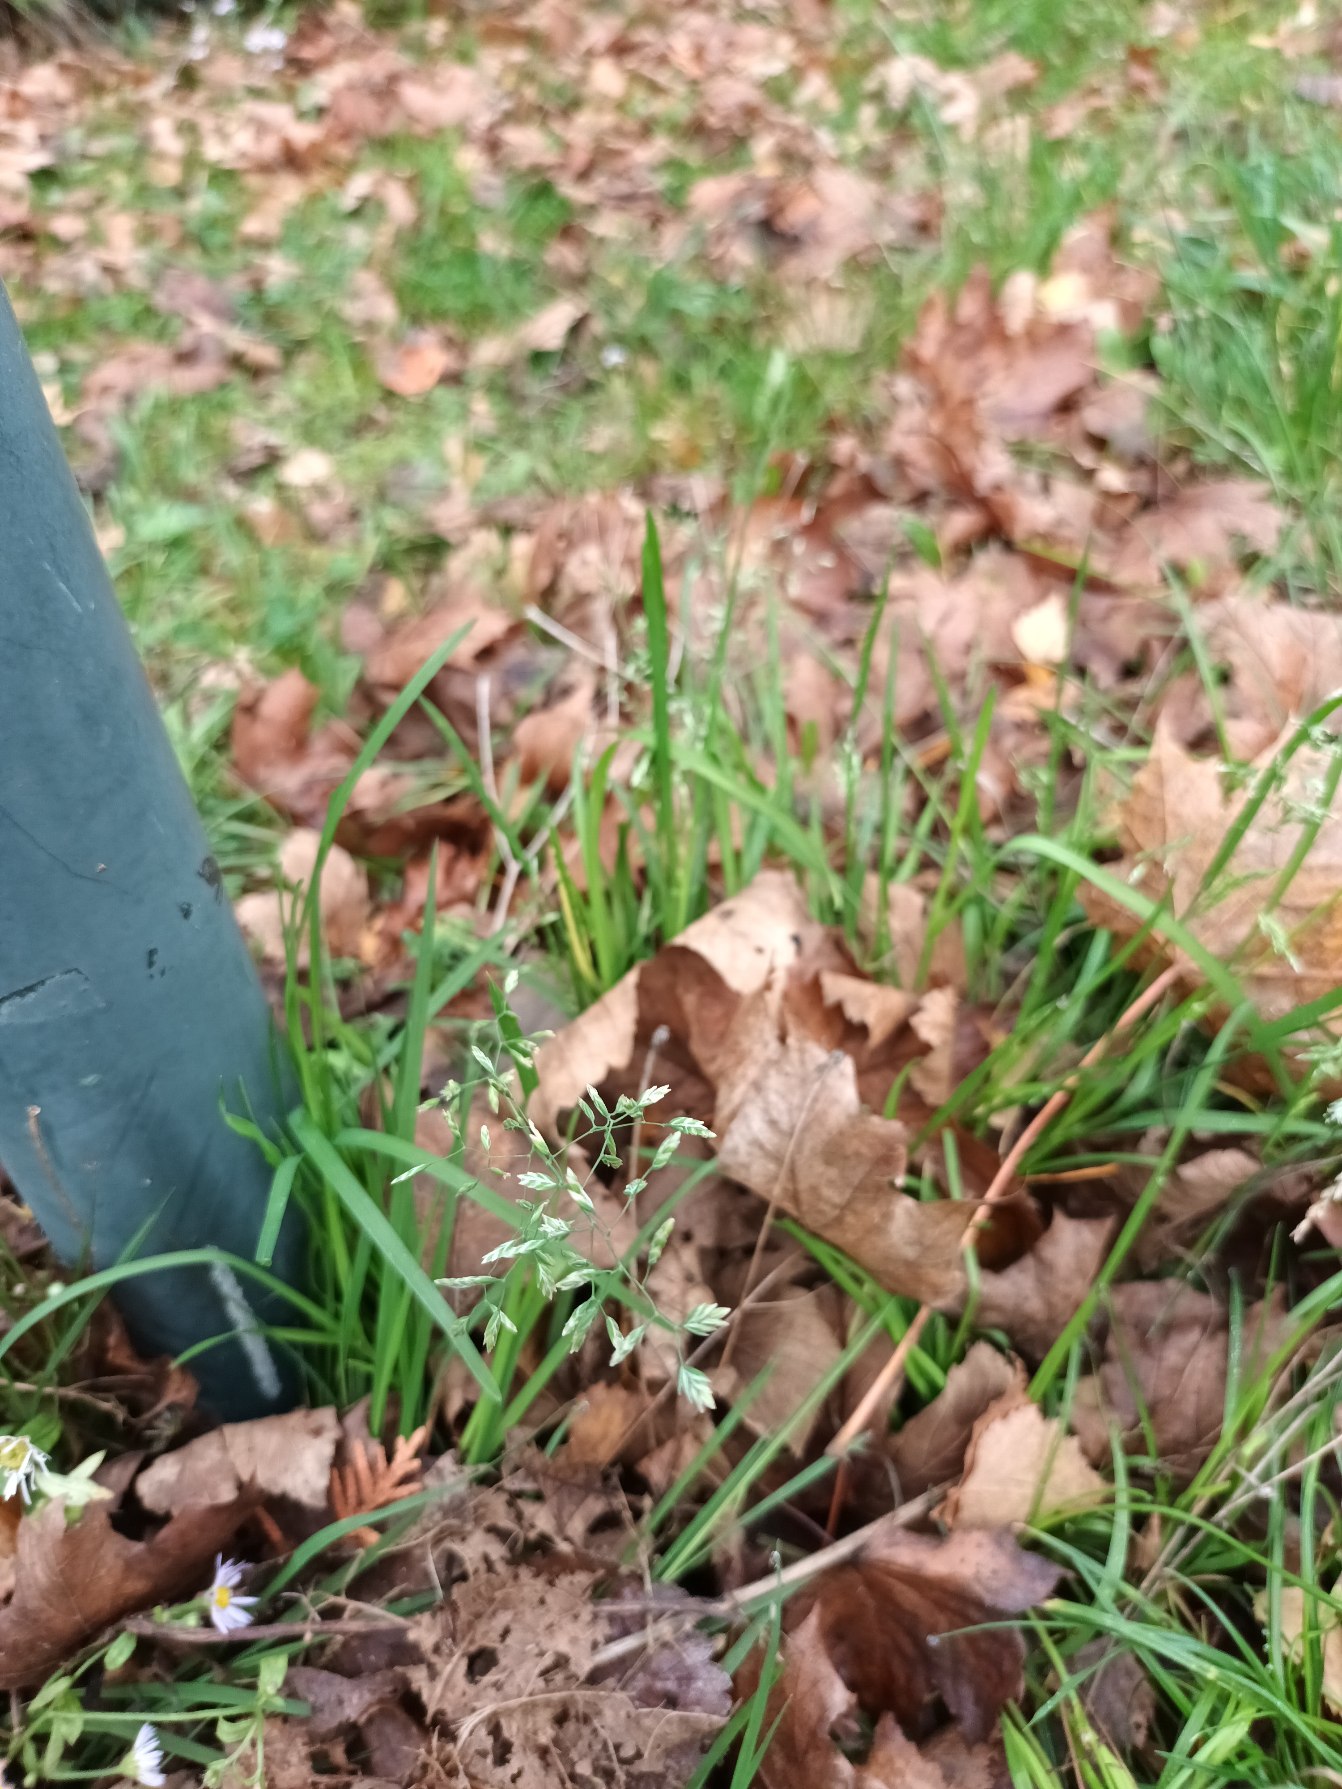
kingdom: Plantae
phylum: Tracheophyta
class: Liliopsida
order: Poales
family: Poaceae
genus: Poa
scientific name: Poa annua
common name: Enårig rapgræs
